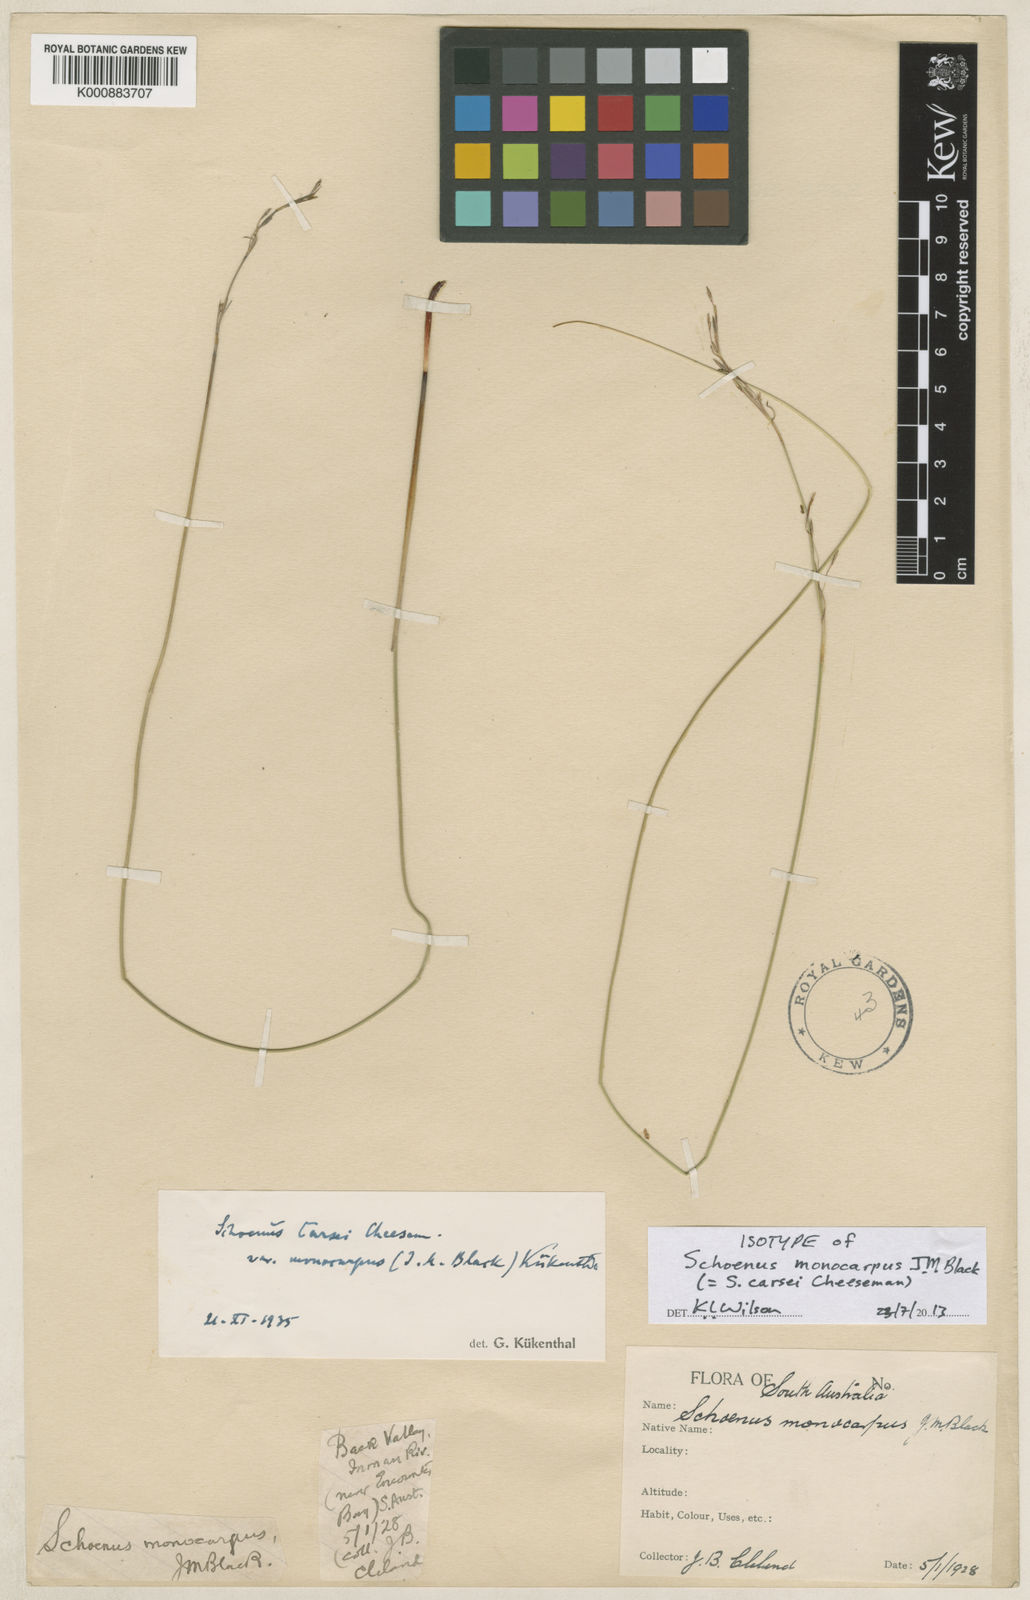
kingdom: Plantae
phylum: Tracheophyta
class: Liliopsida
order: Poales
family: Cyperaceae
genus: Schoenus
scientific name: Schoenus
